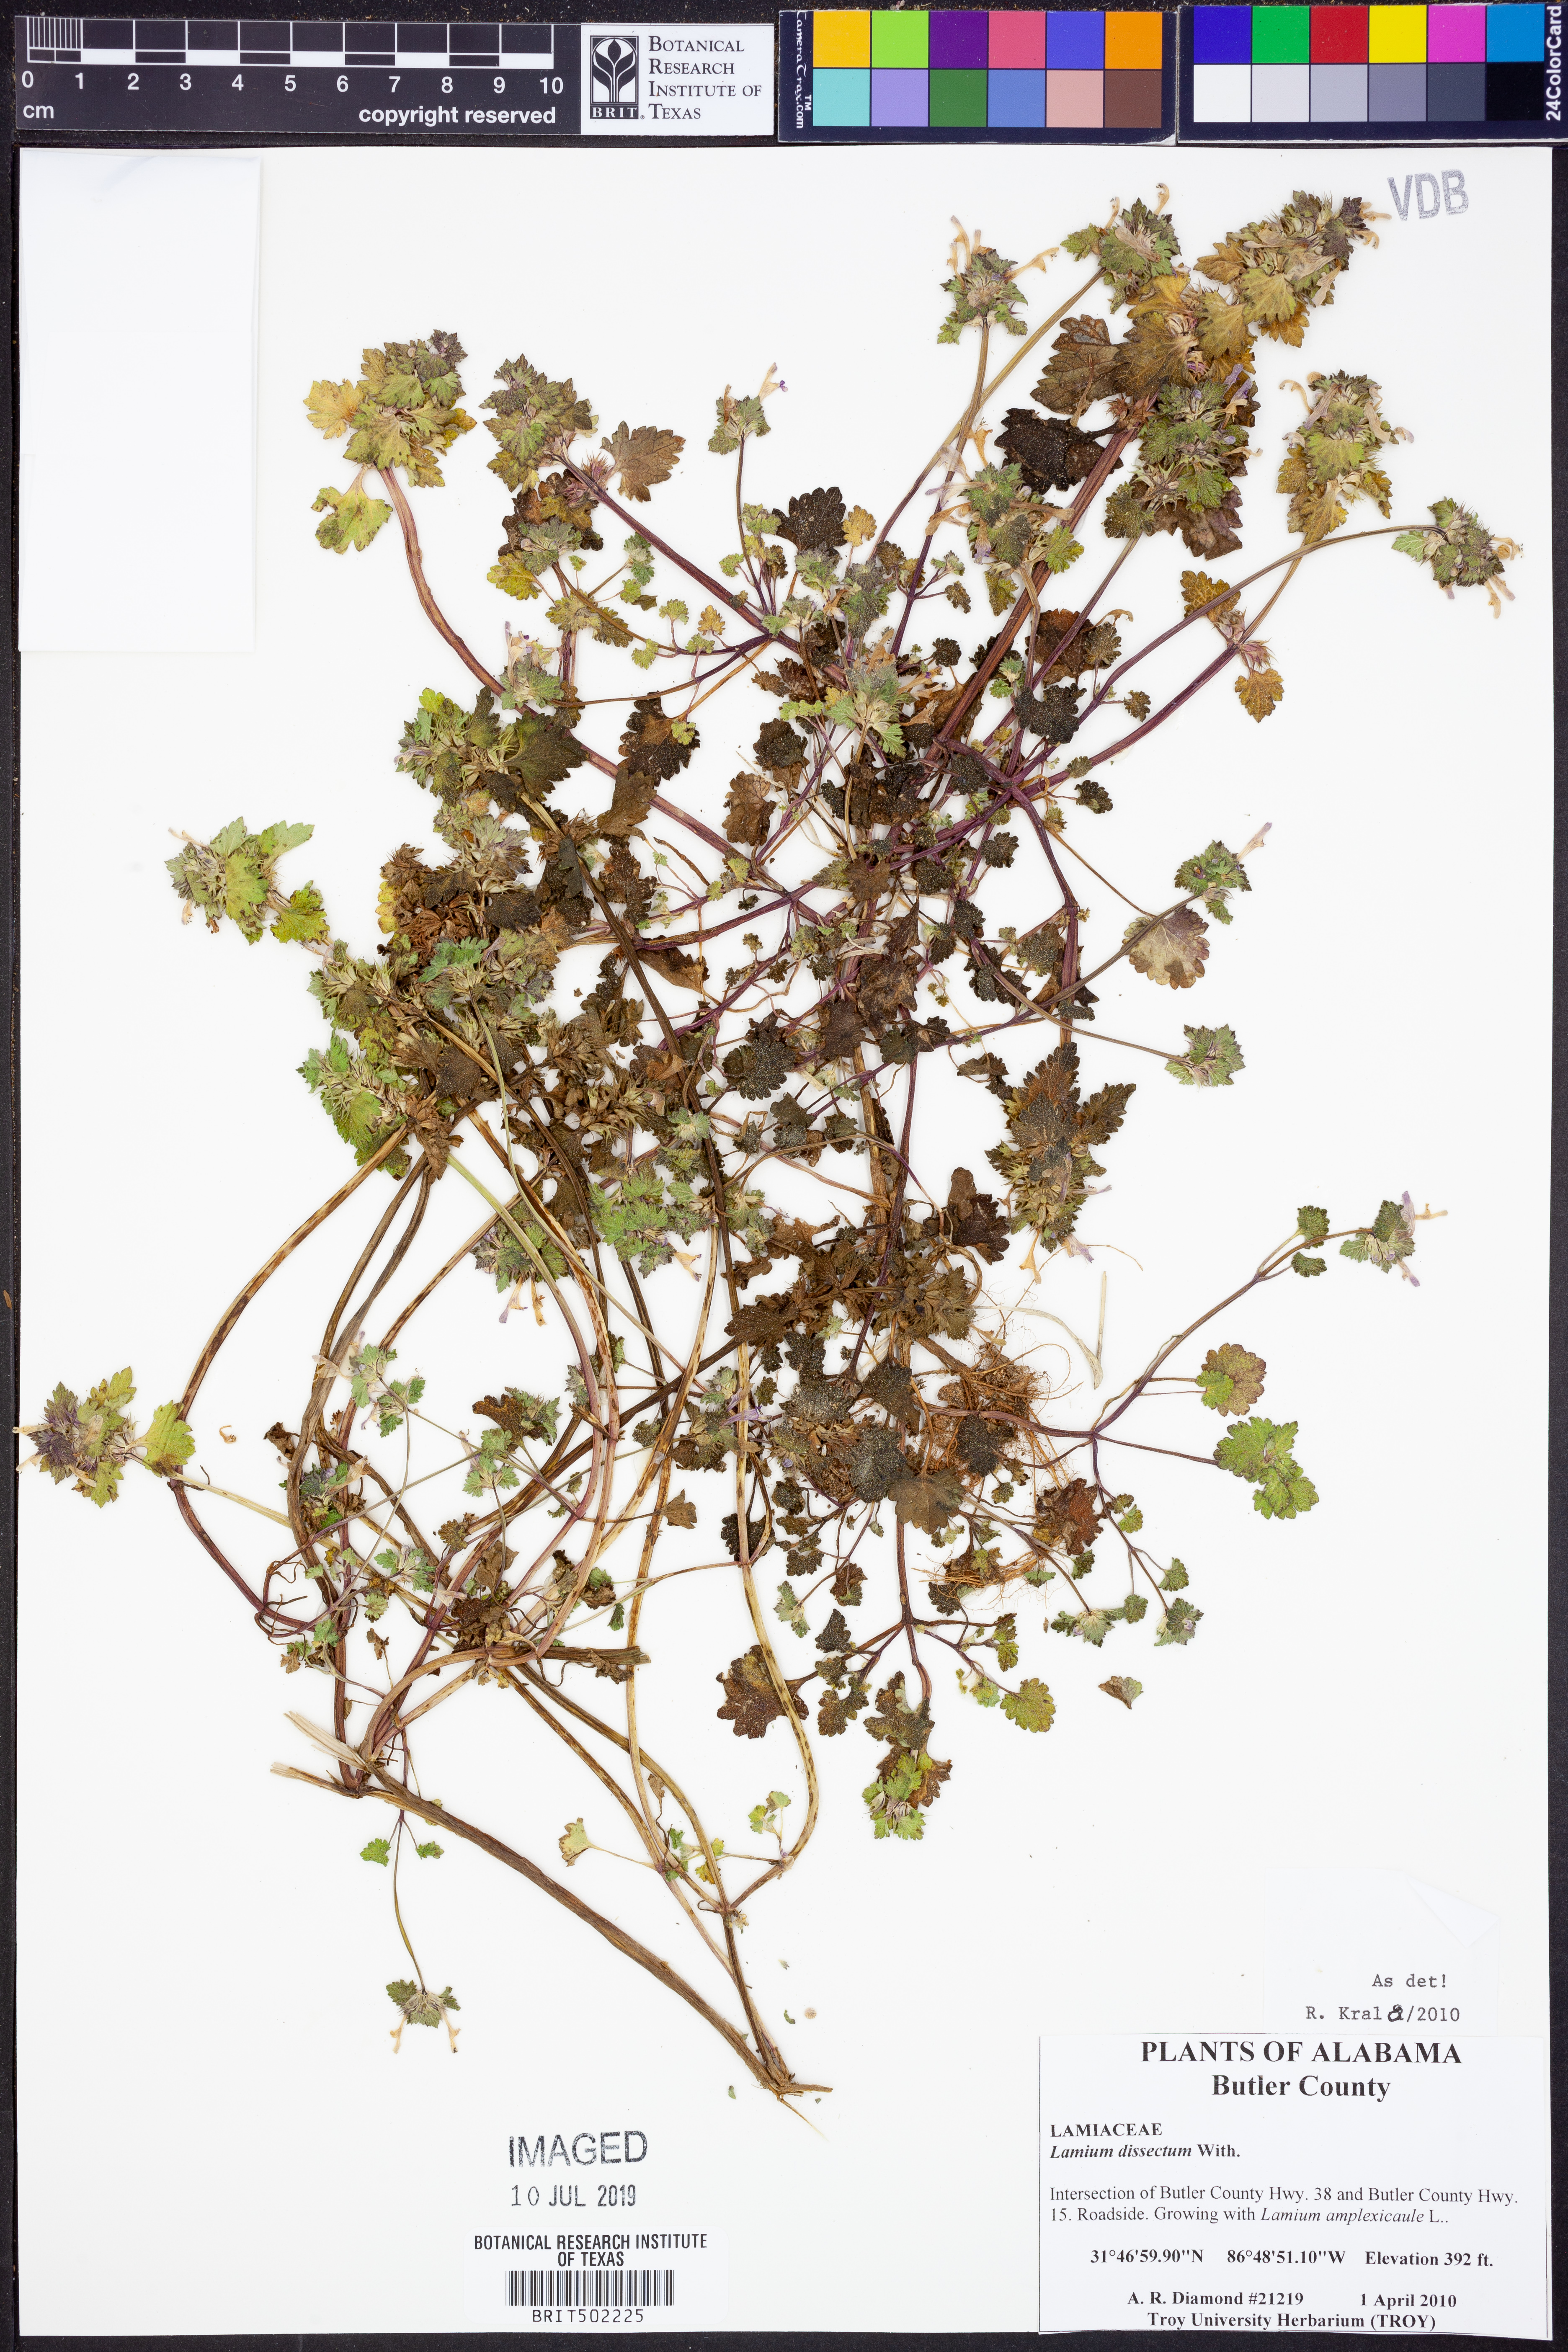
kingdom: Plantae
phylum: Tracheophyta
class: Magnoliopsida
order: Lamiales
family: Lamiaceae
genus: Lamium
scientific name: Lamium hybridum
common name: Cut-leaved dead-nettle
